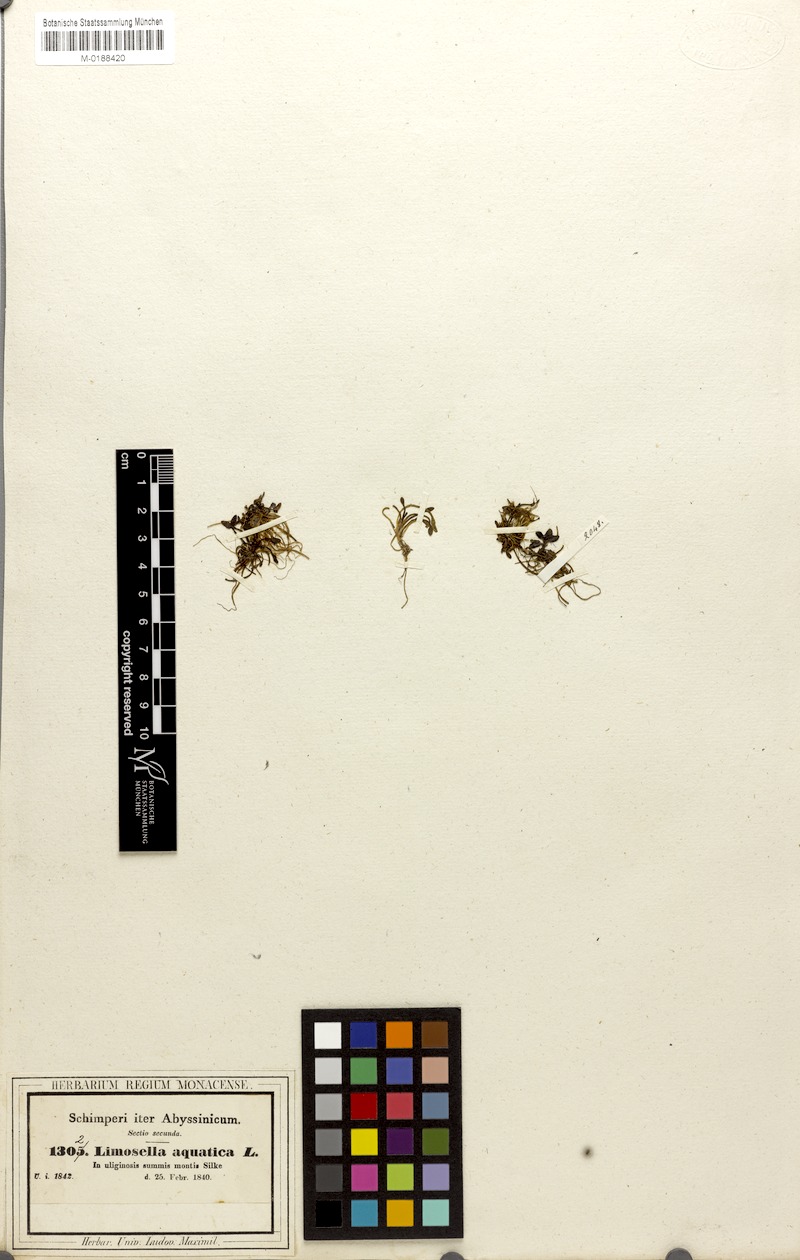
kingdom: Plantae
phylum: Tracheophyta
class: Magnoliopsida
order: Lamiales
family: Scrophulariaceae
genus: Limosella
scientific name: Limosella aquatica
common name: Mudwort
